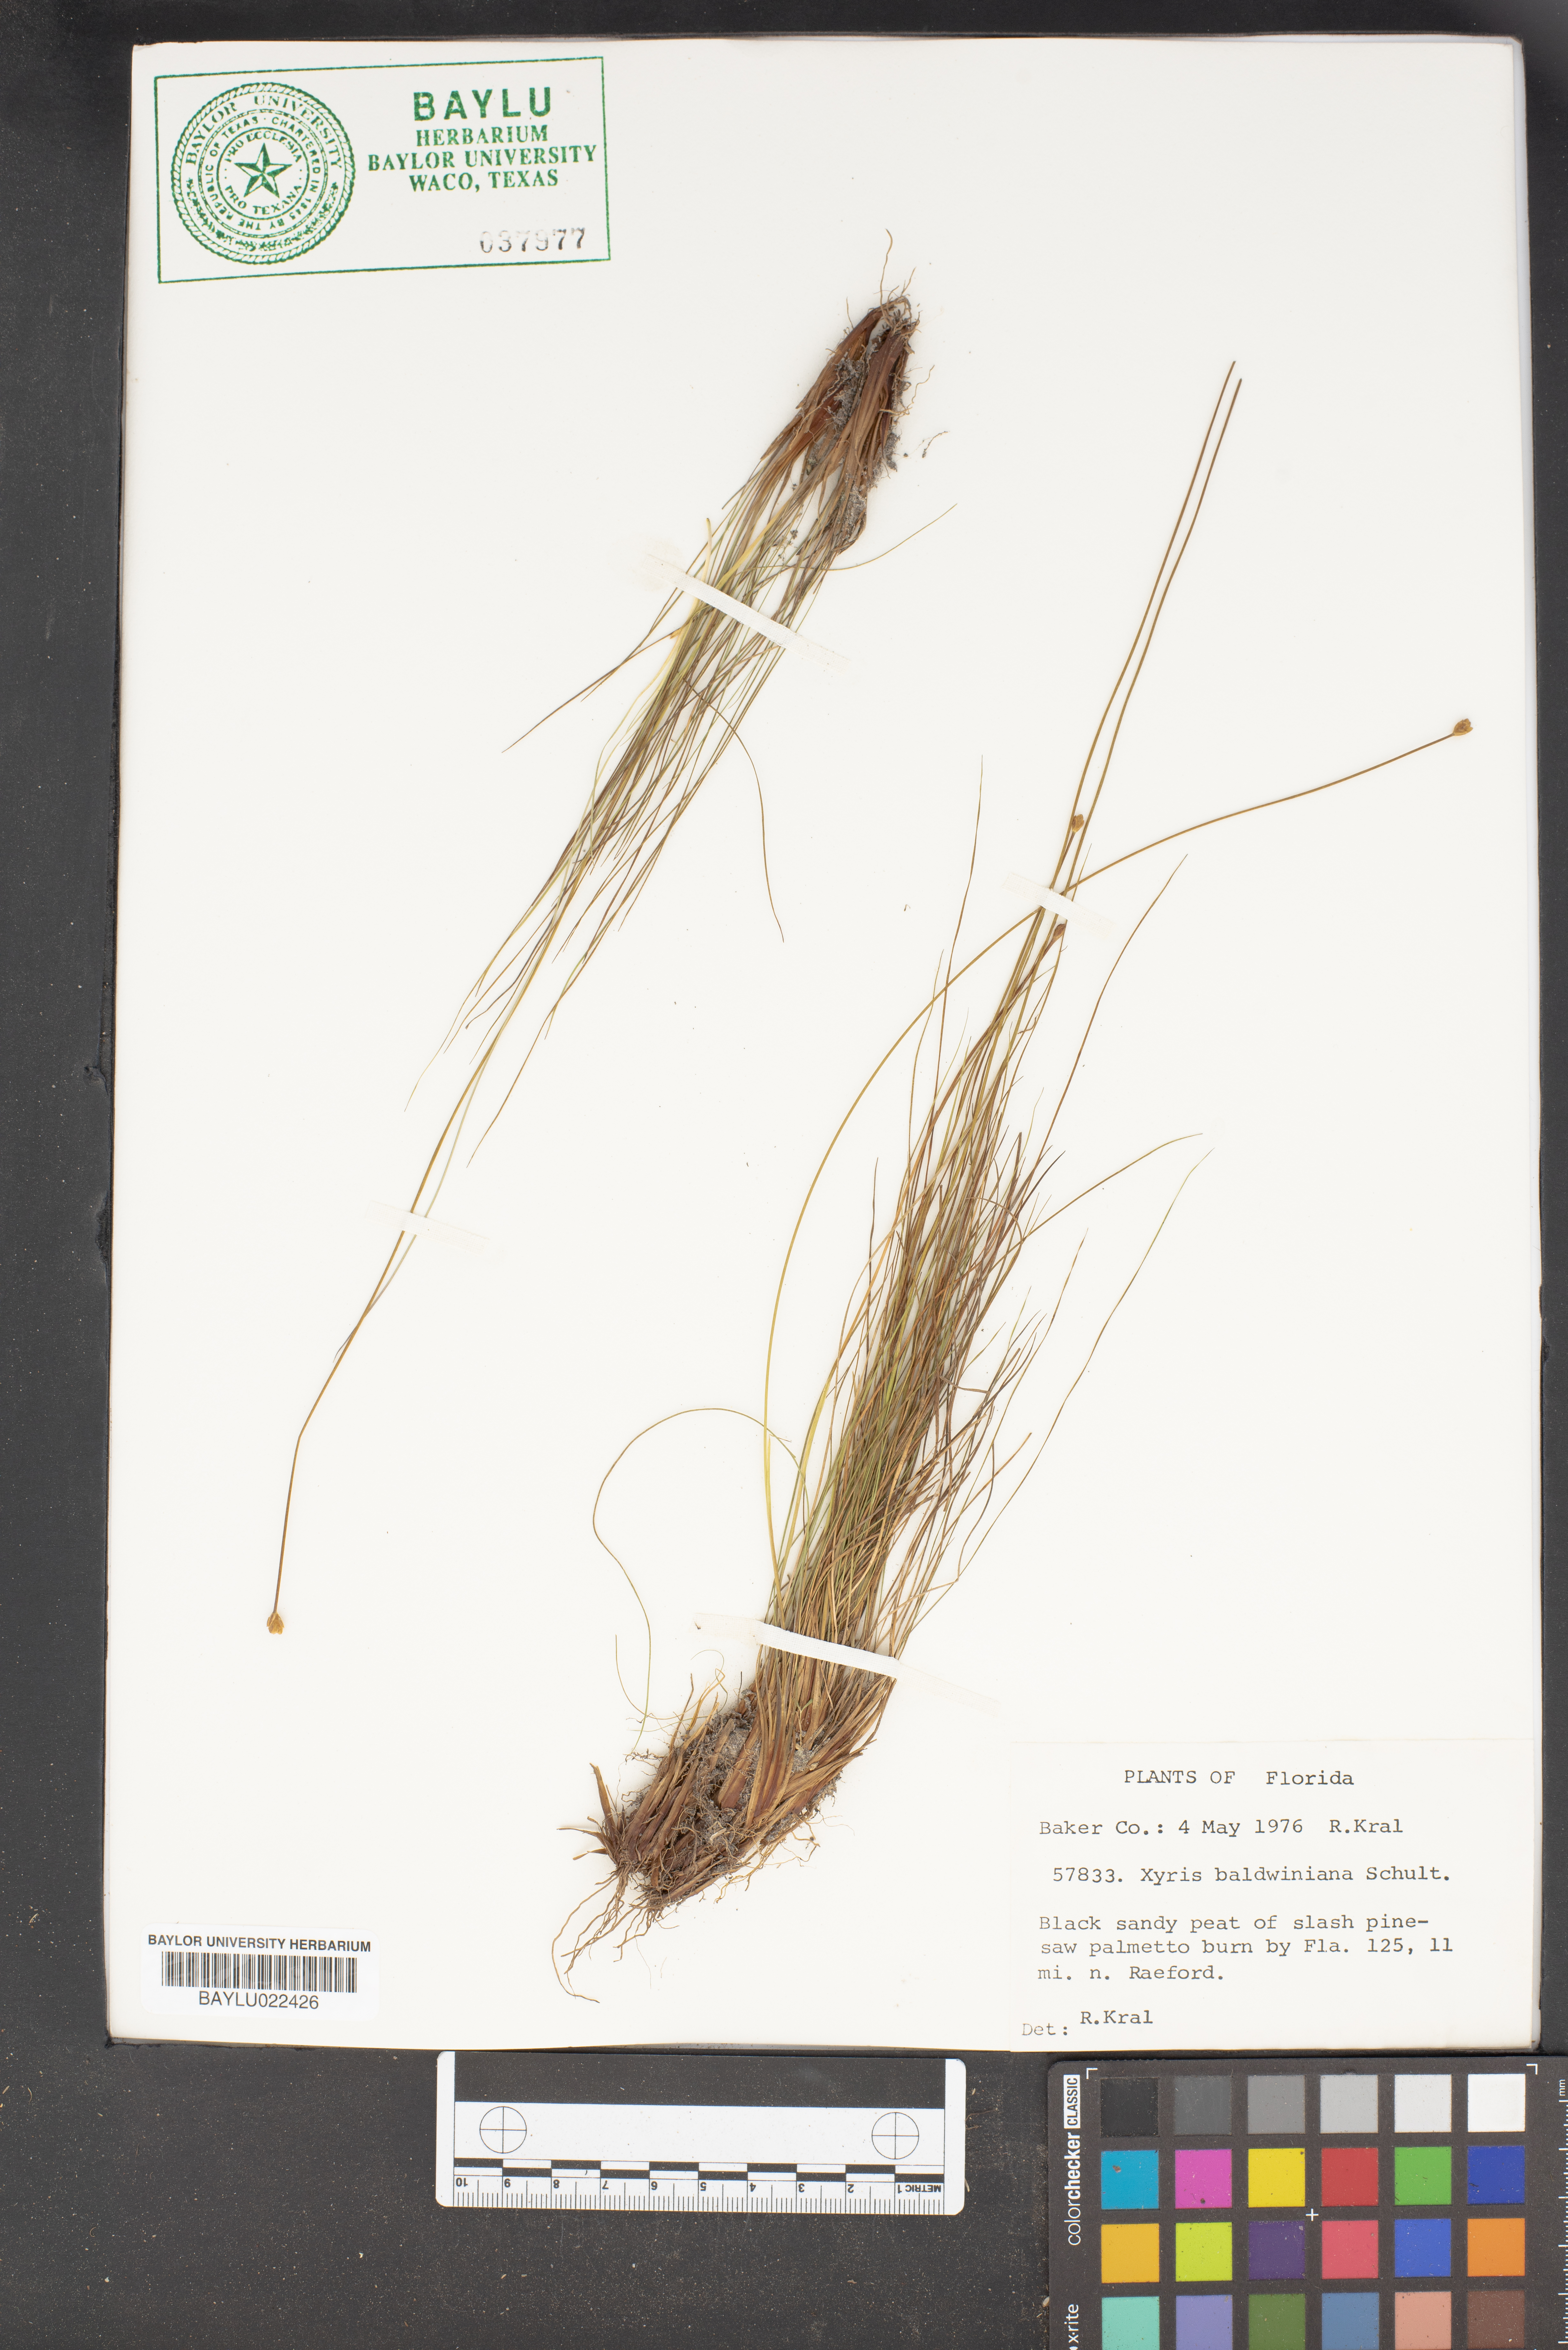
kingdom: Plantae
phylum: Tracheophyta
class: Liliopsida
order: Poales
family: Xyridaceae
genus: Xyris
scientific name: Xyris baldwiniana
